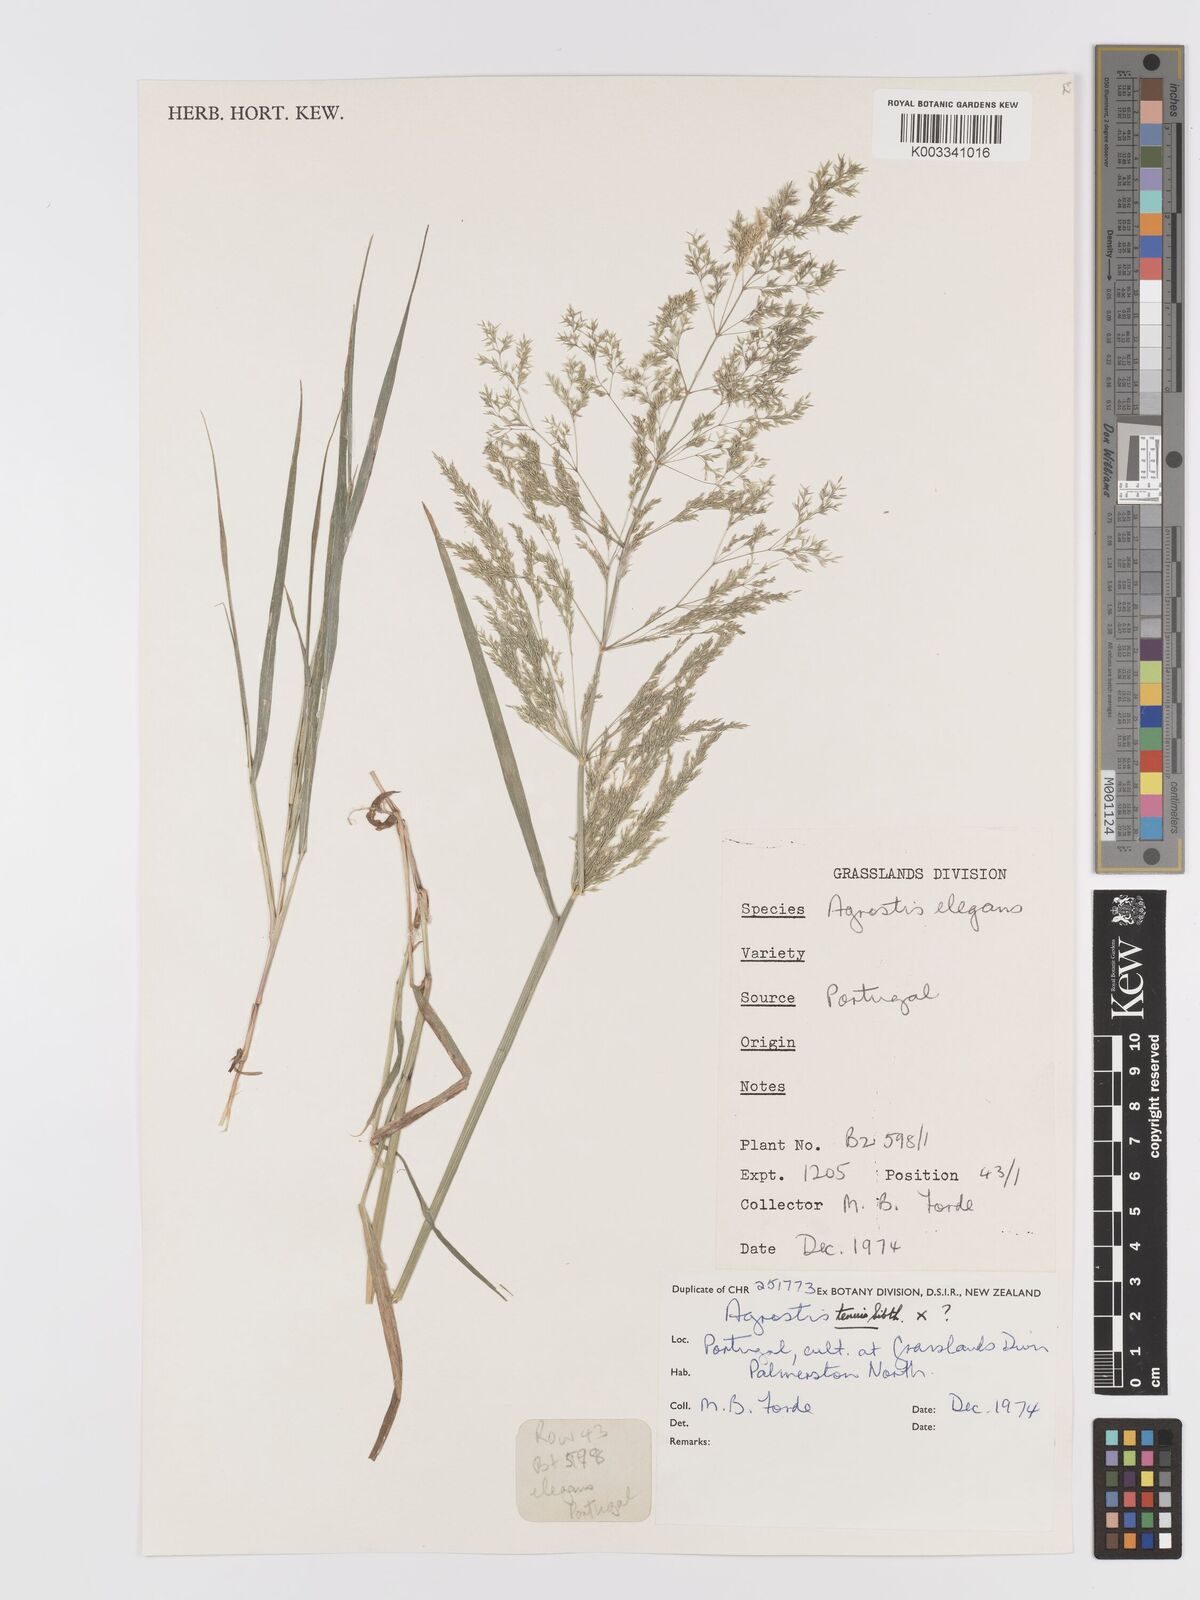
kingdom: Plantae
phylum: Tracheophyta
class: Liliopsida
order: Poales
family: Poaceae
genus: Agrostis
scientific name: Agrostis capillaris
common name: Colonial bentgrass
